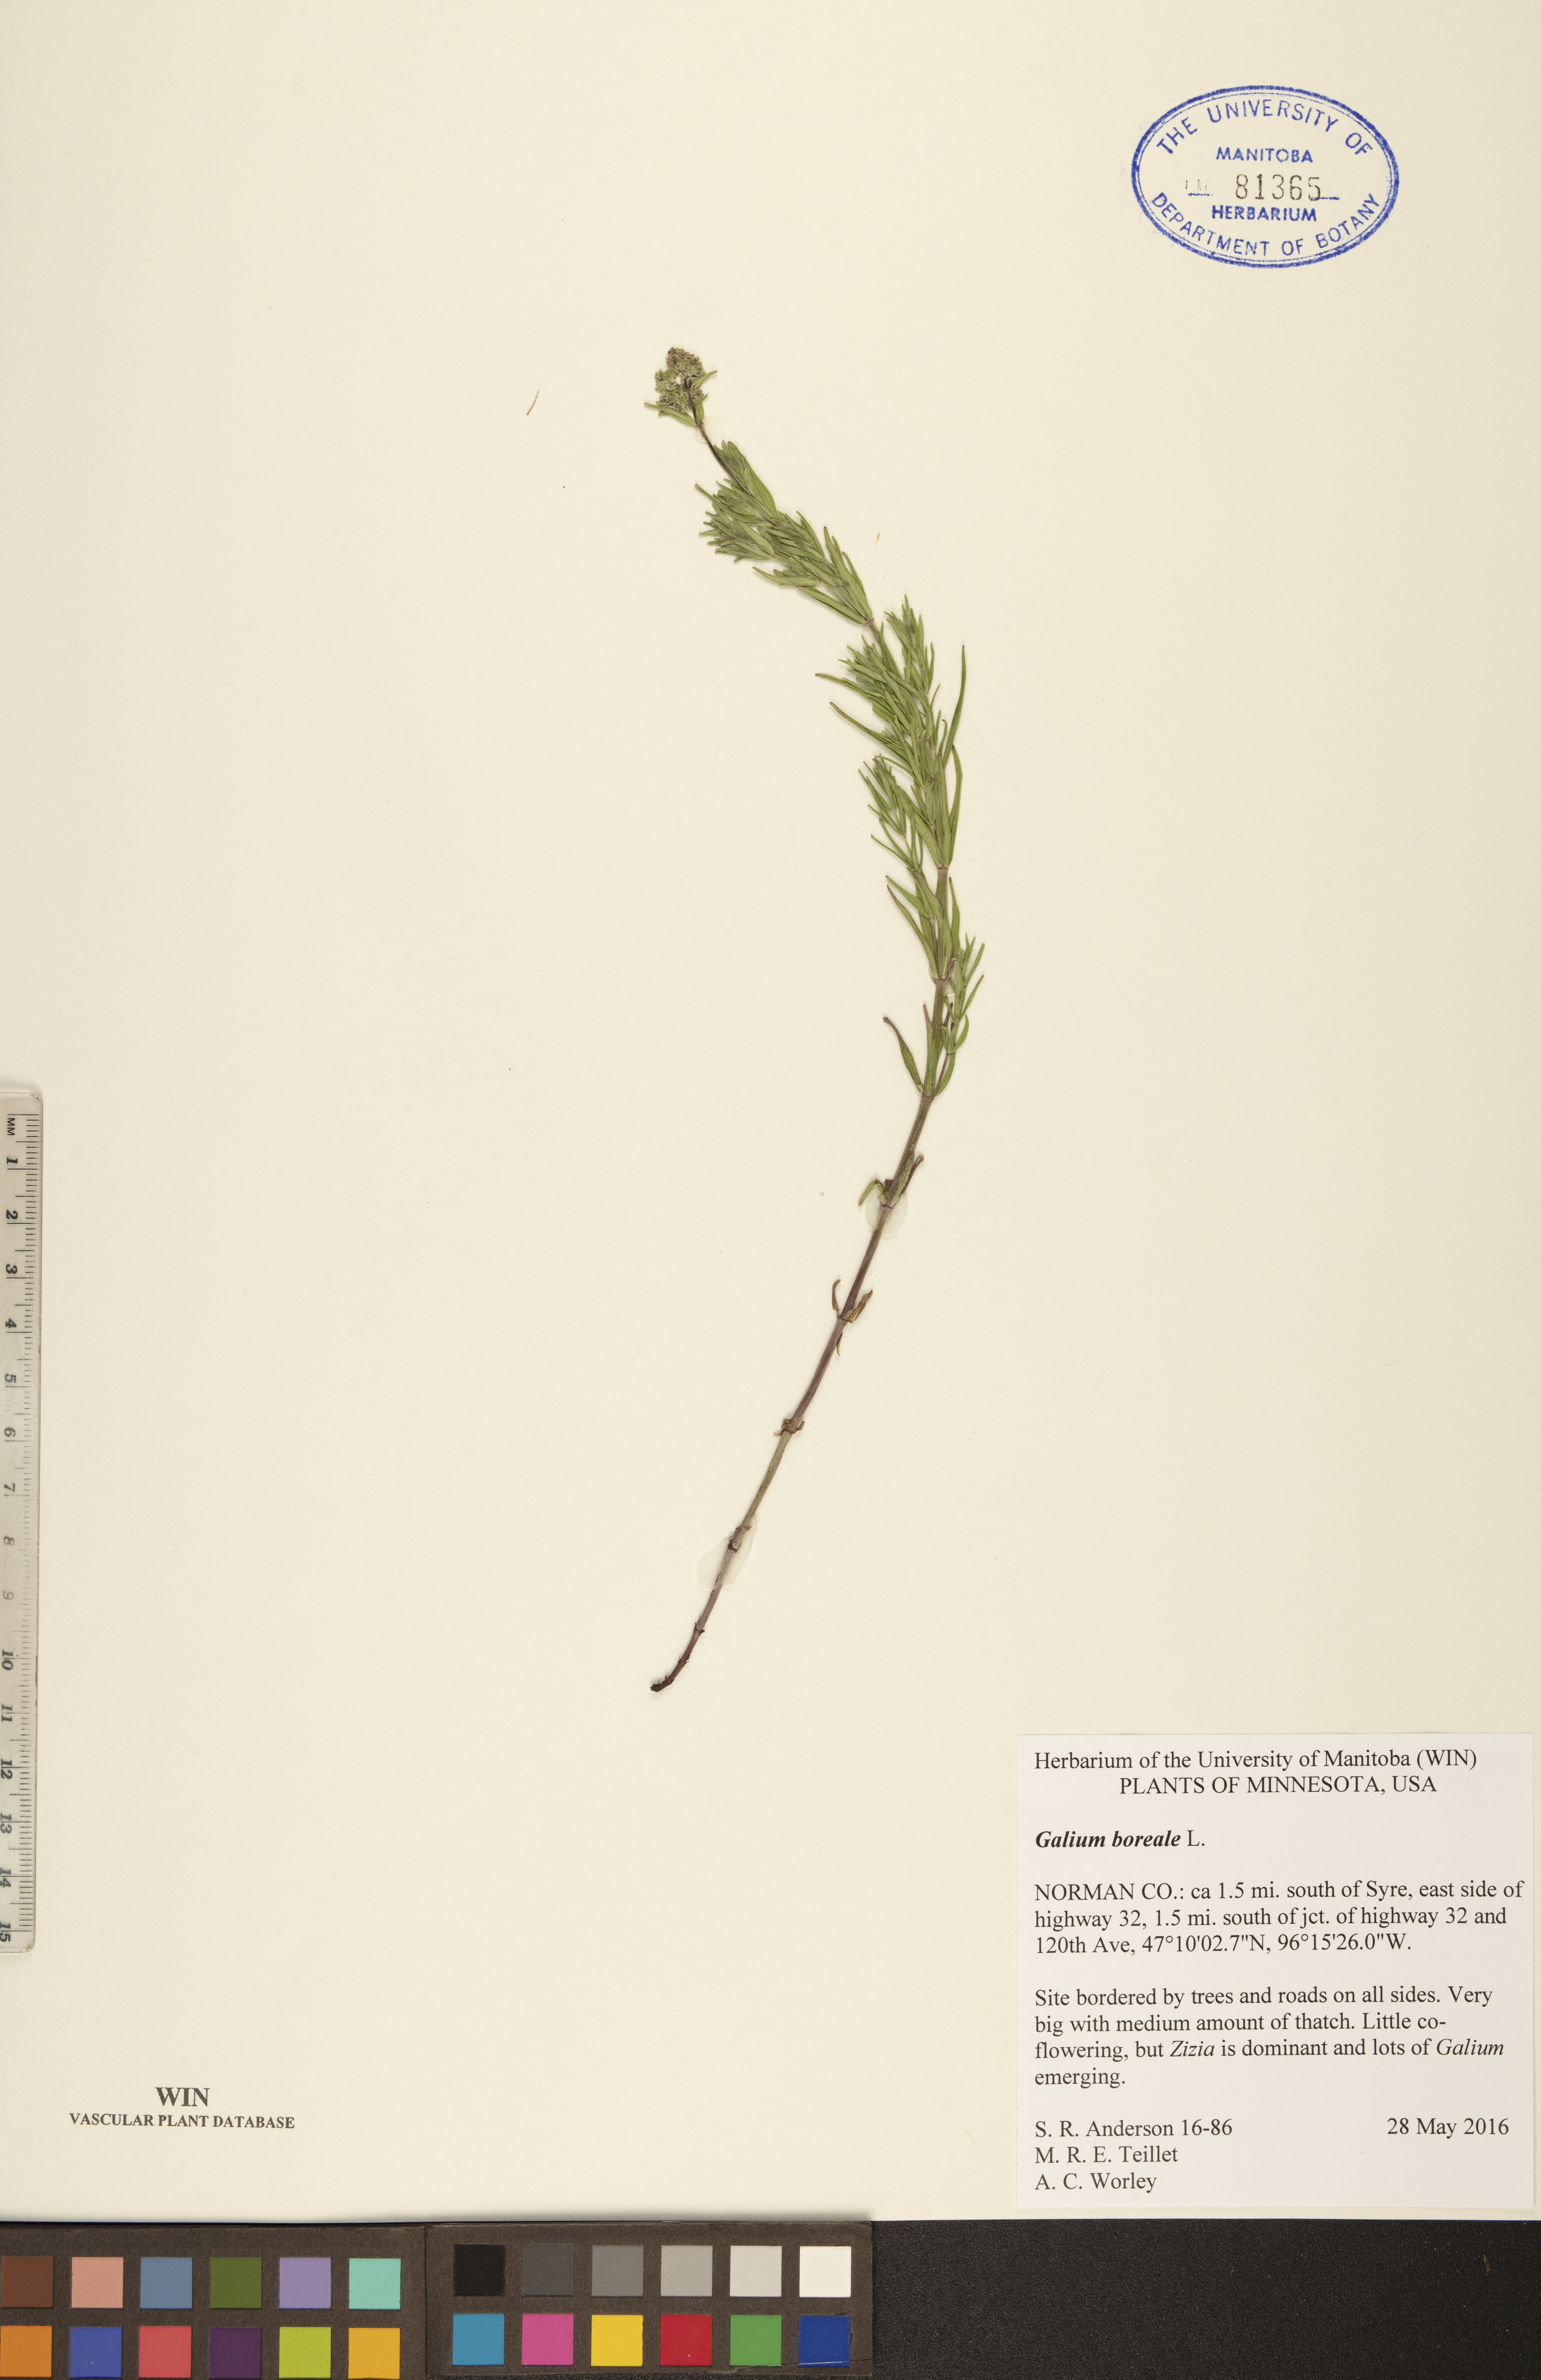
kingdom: Plantae
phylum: Tracheophyta
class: Magnoliopsida
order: Gentianales
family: Rubiaceae
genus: Galium
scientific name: Galium boreale
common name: Northern bedstraw
